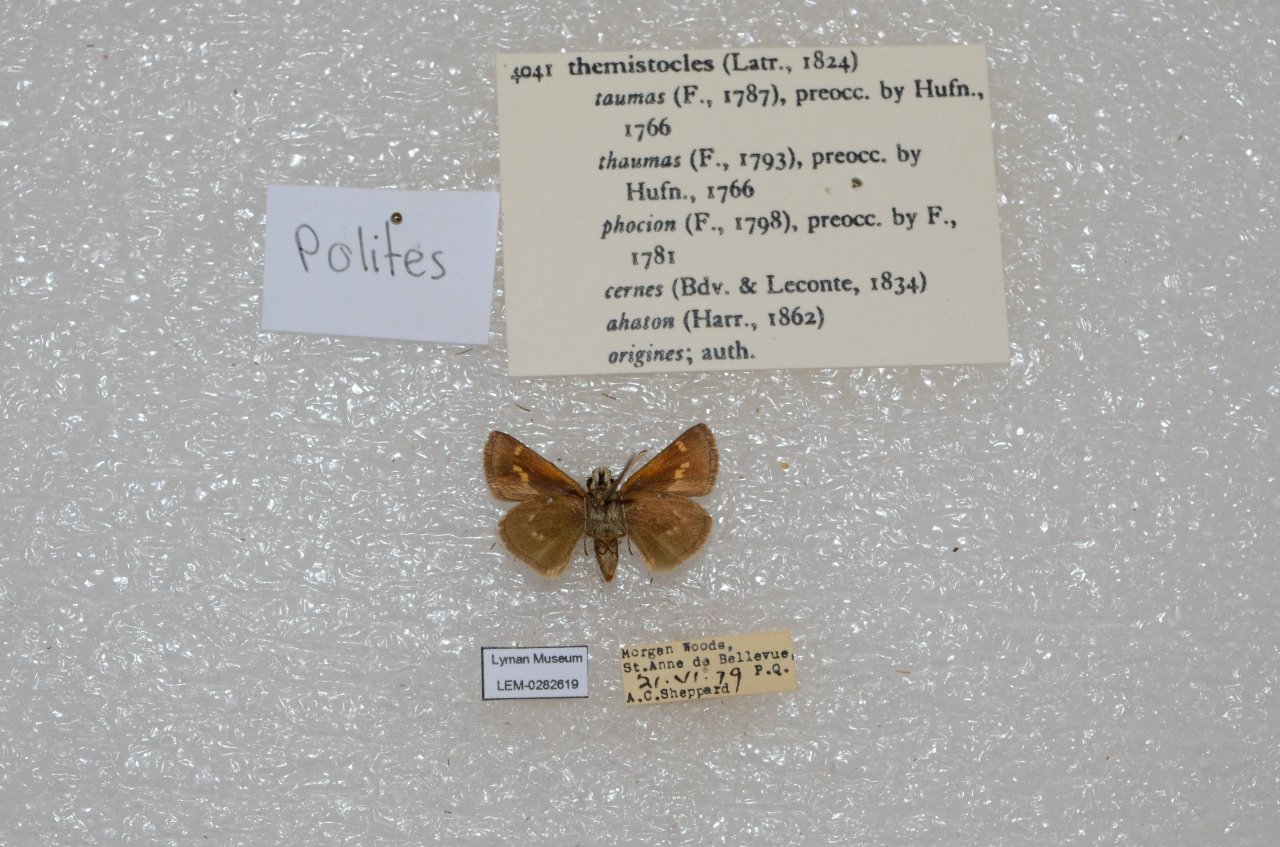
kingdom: Animalia
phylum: Arthropoda
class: Insecta
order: Lepidoptera
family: Hesperiidae
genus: Polites
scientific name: Polites themistocles
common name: Tawny-edged Skipper
